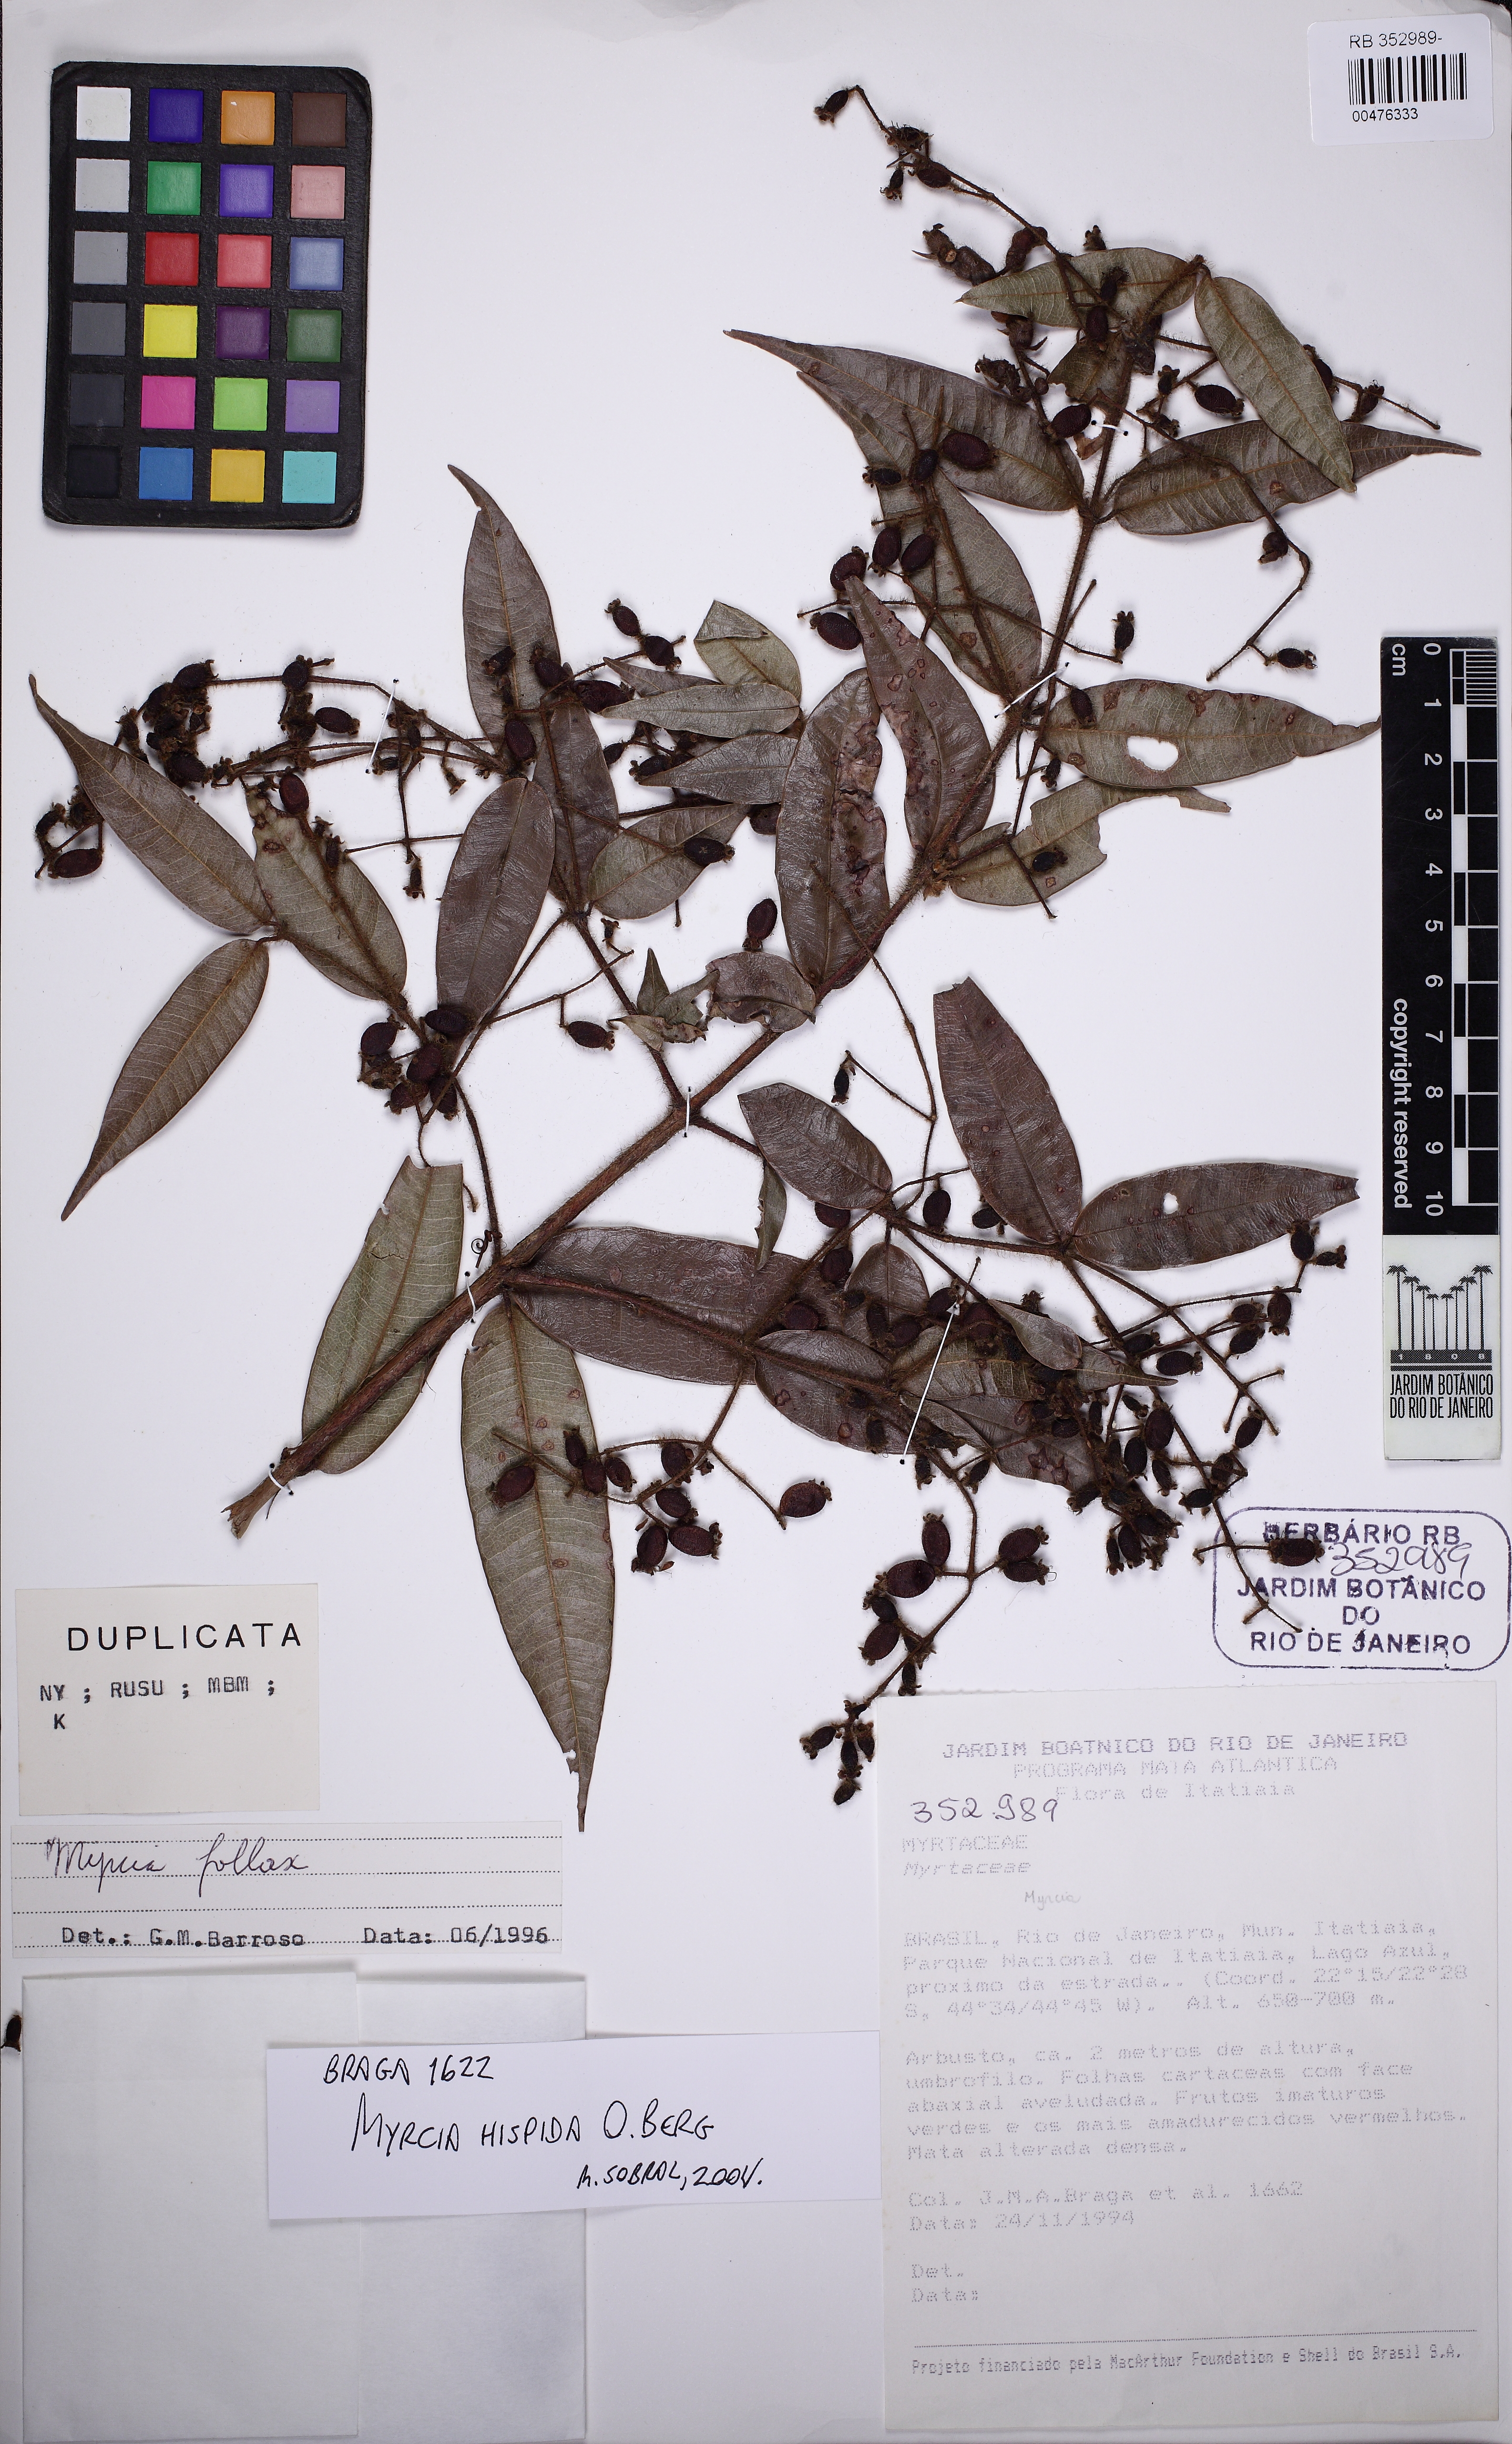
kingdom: Plantae
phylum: Tracheophyta
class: Magnoliopsida
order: Myrtales
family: Myrtaceae
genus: Myrcia
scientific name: Myrcia eriopus
